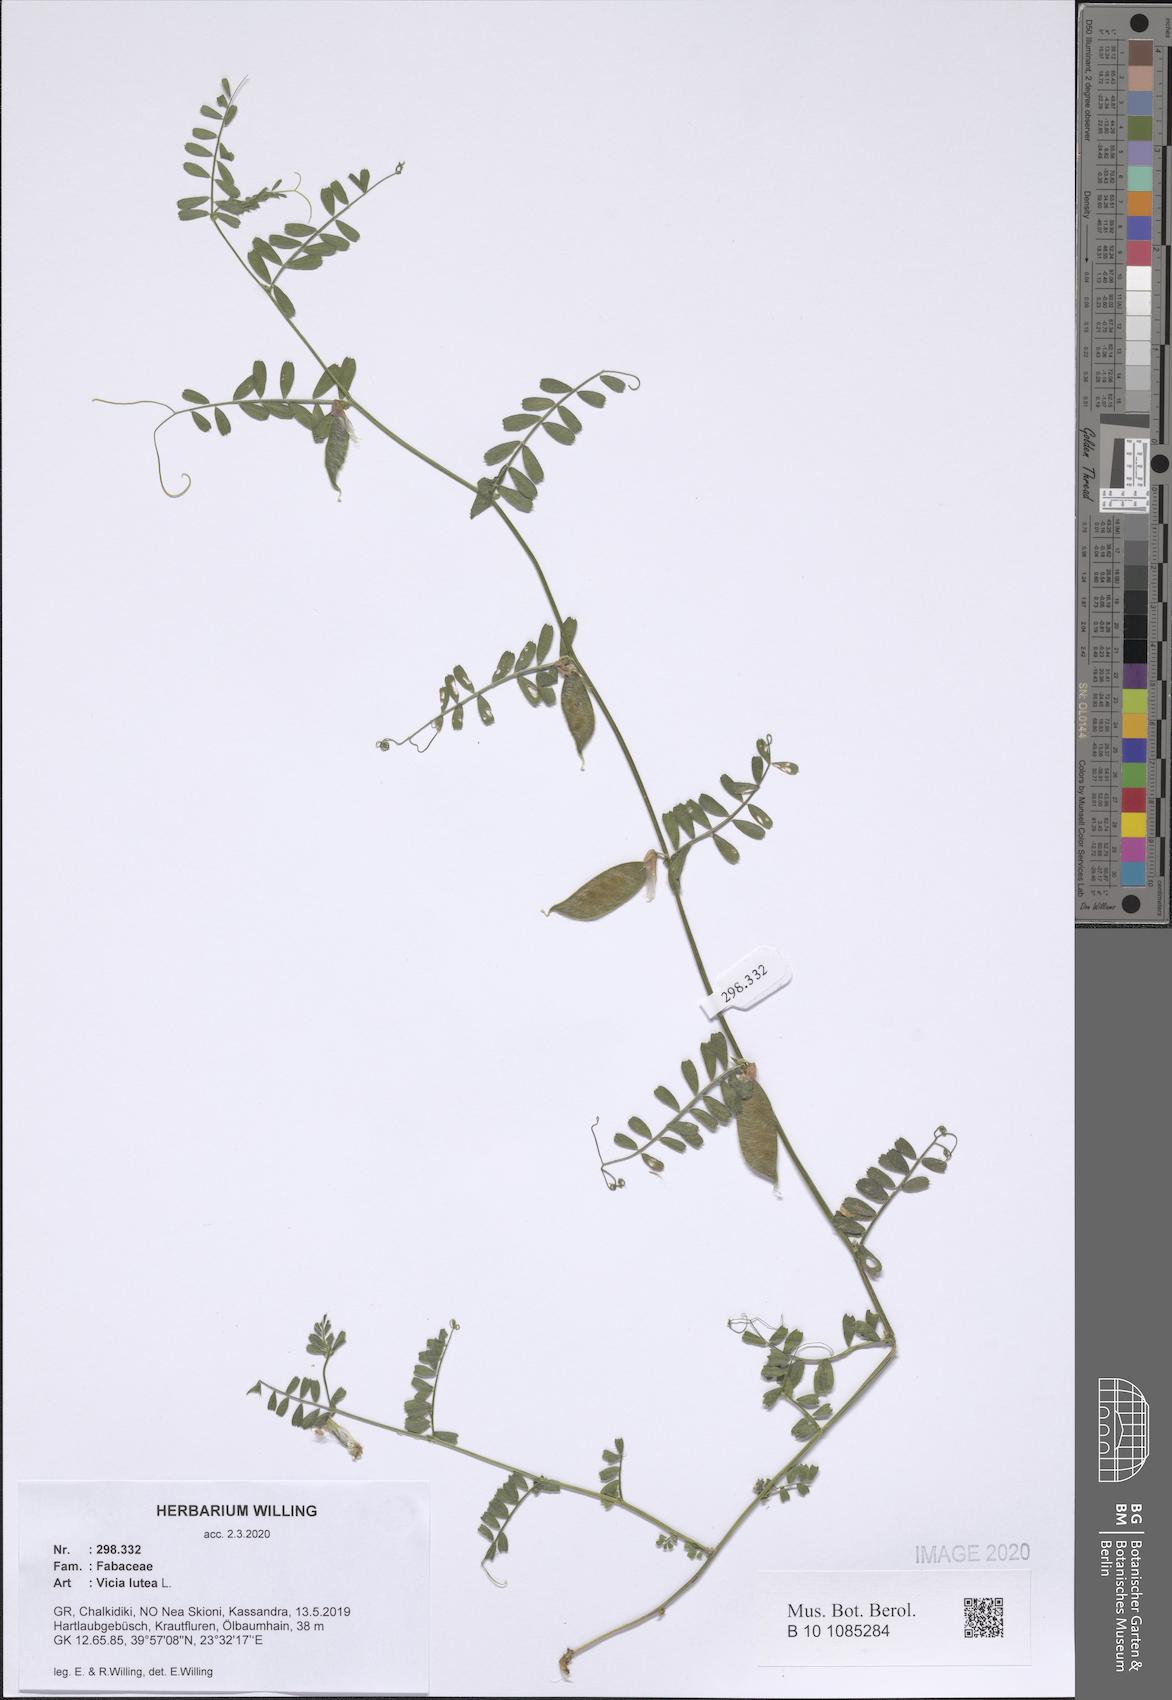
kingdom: Plantae
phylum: Tracheophyta
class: Magnoliopsida
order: Fabales
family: Fabaceae
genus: Vicia
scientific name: Vicia lutea
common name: Smooth yellow vetch
